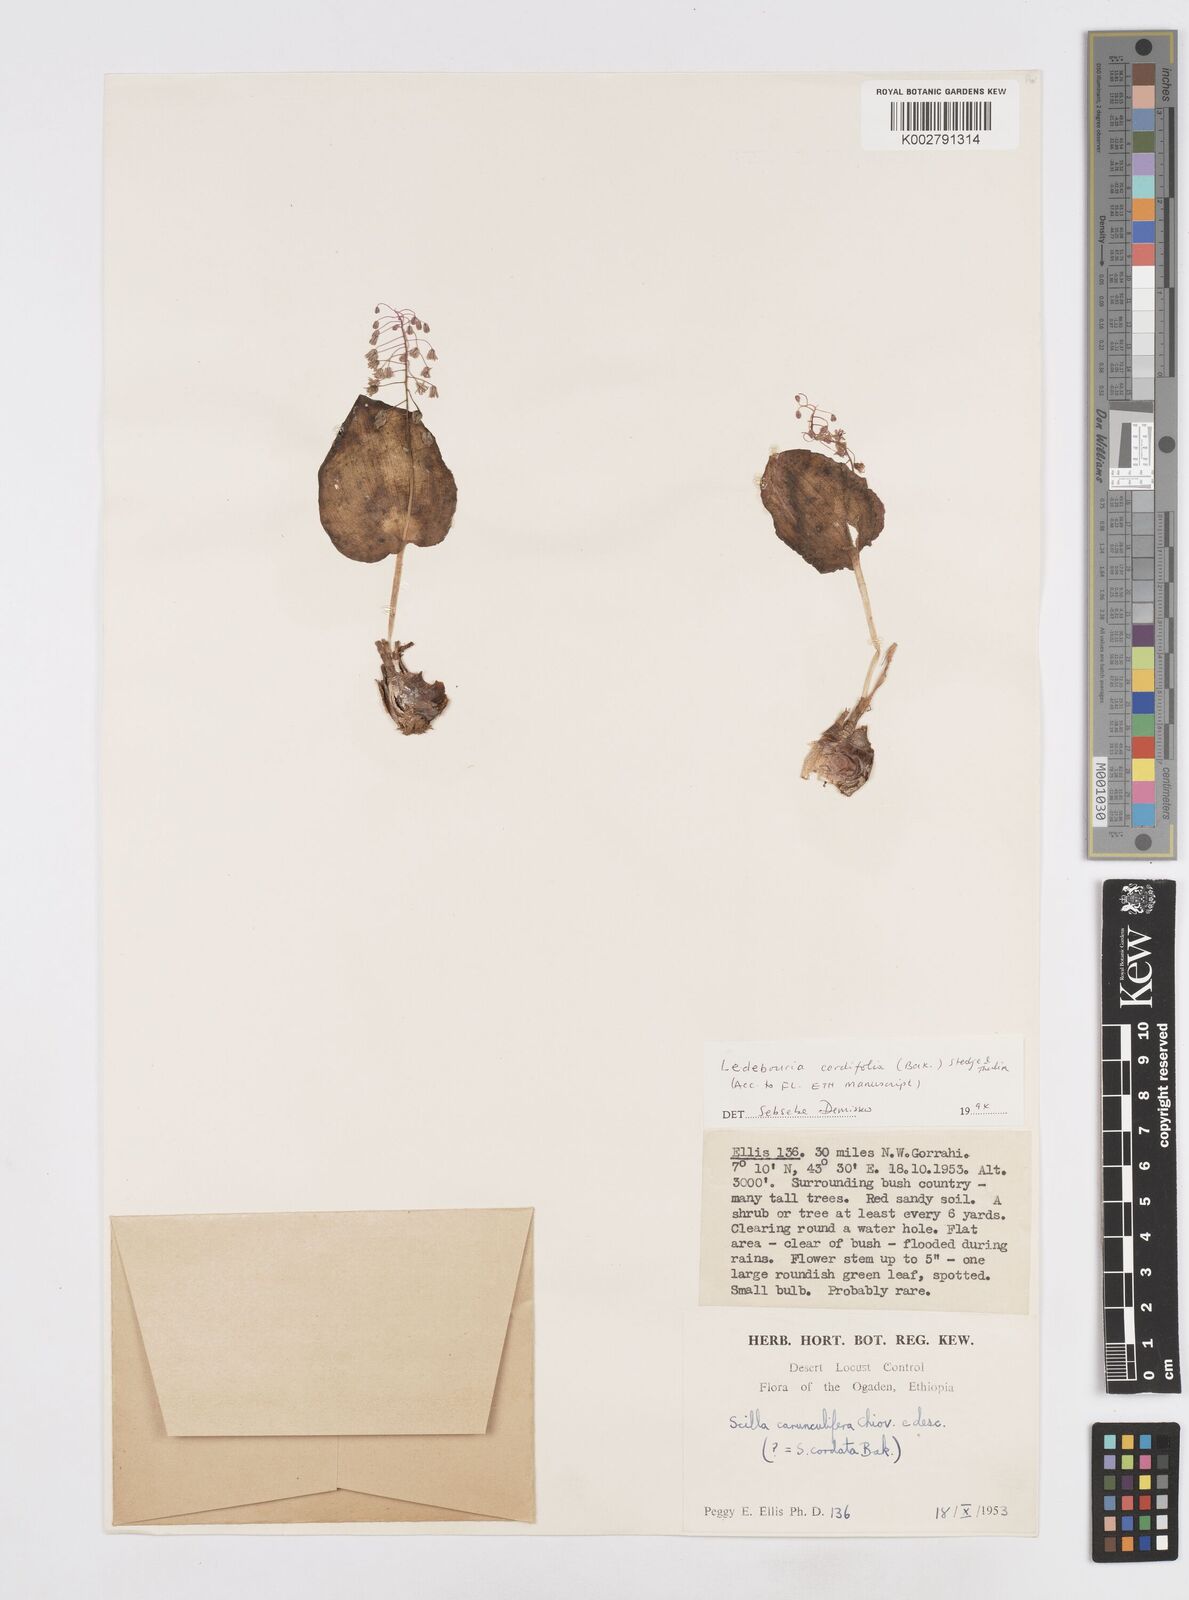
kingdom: Plantae
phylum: Tracheophyta
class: Liliopsida
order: Asparagales
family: Asparagaceae
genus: Ledebouria
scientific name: Ledebouria cordifolia
